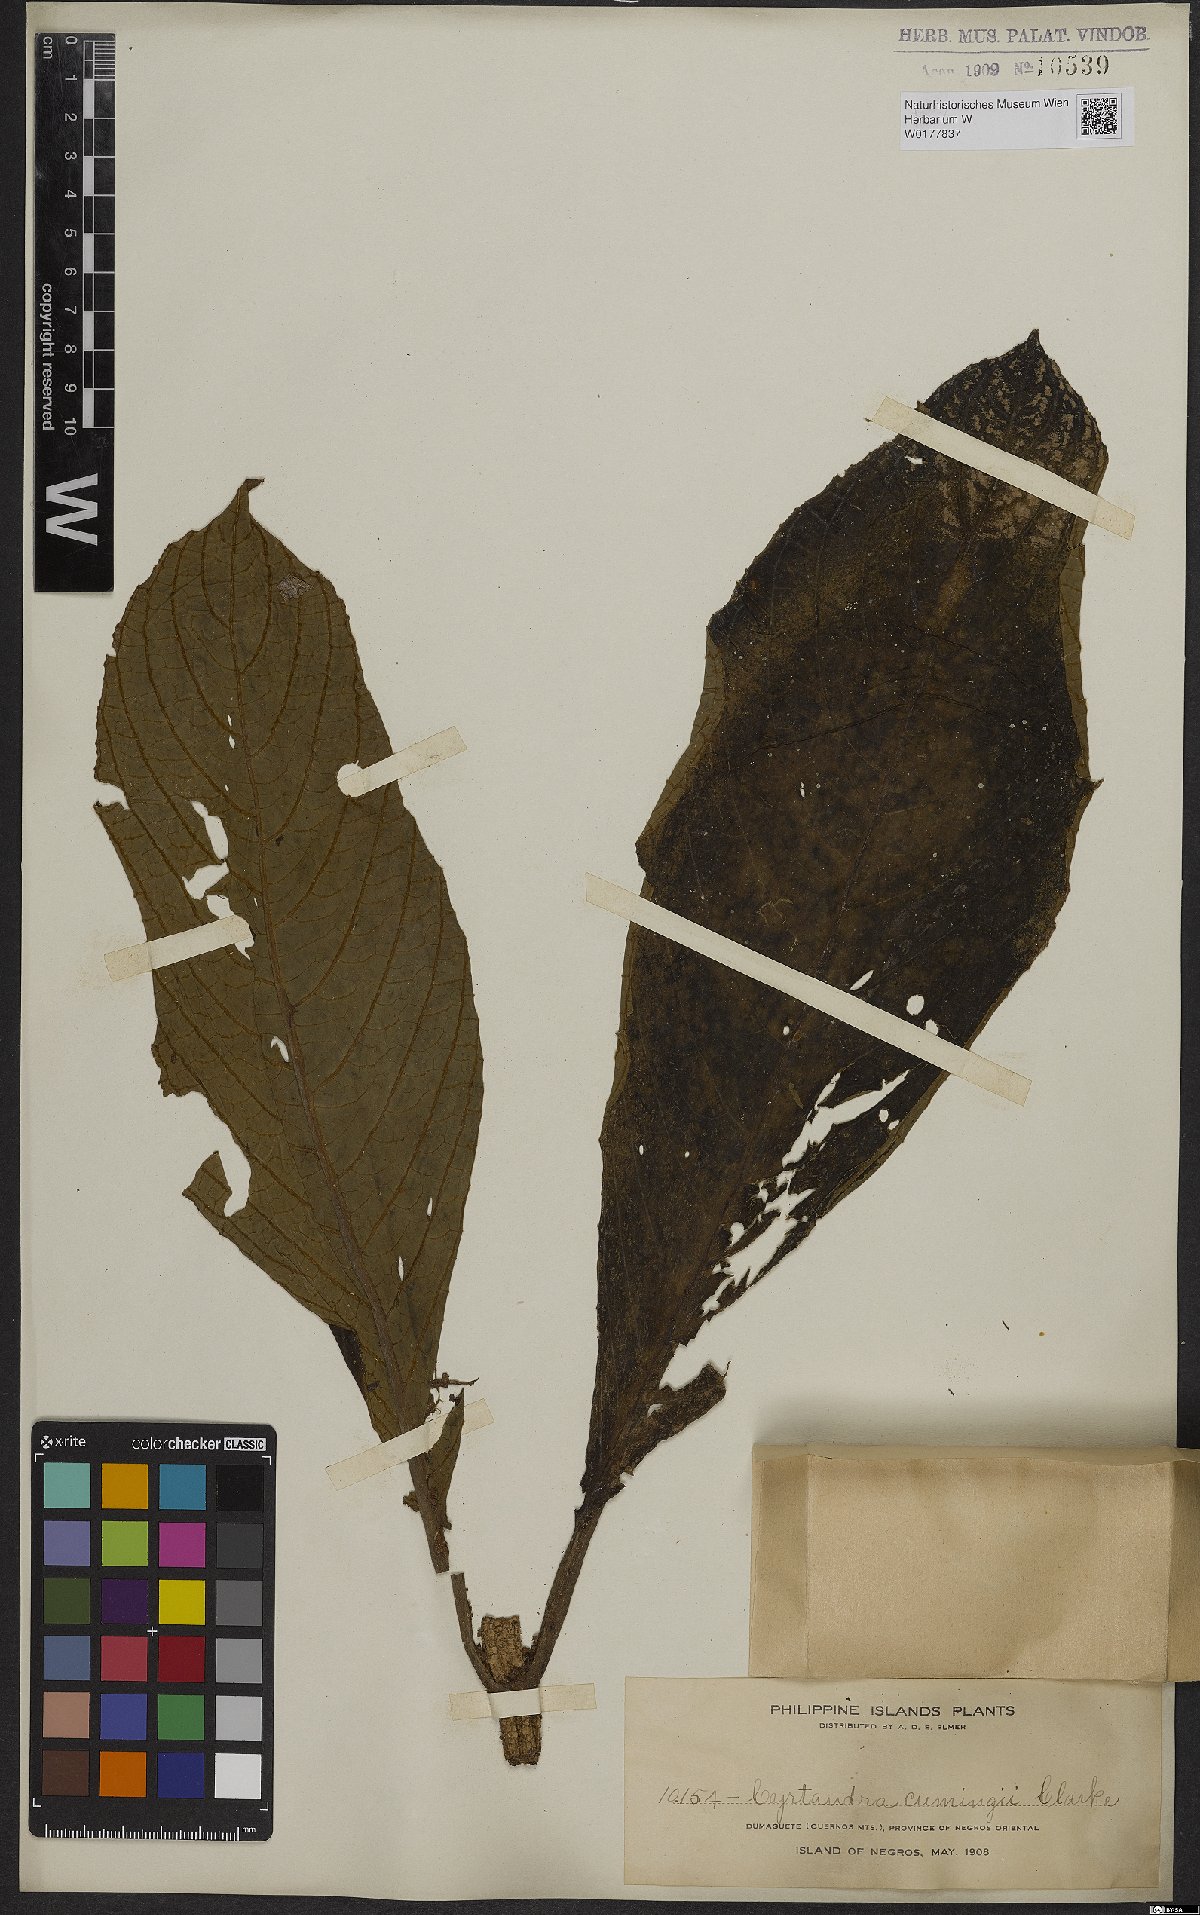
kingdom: Plantae
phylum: Tracheophyta
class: Magnoliopsida
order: Lamiales
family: Gesneriaceae
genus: Cyrtandra
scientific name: Cyrtandra
